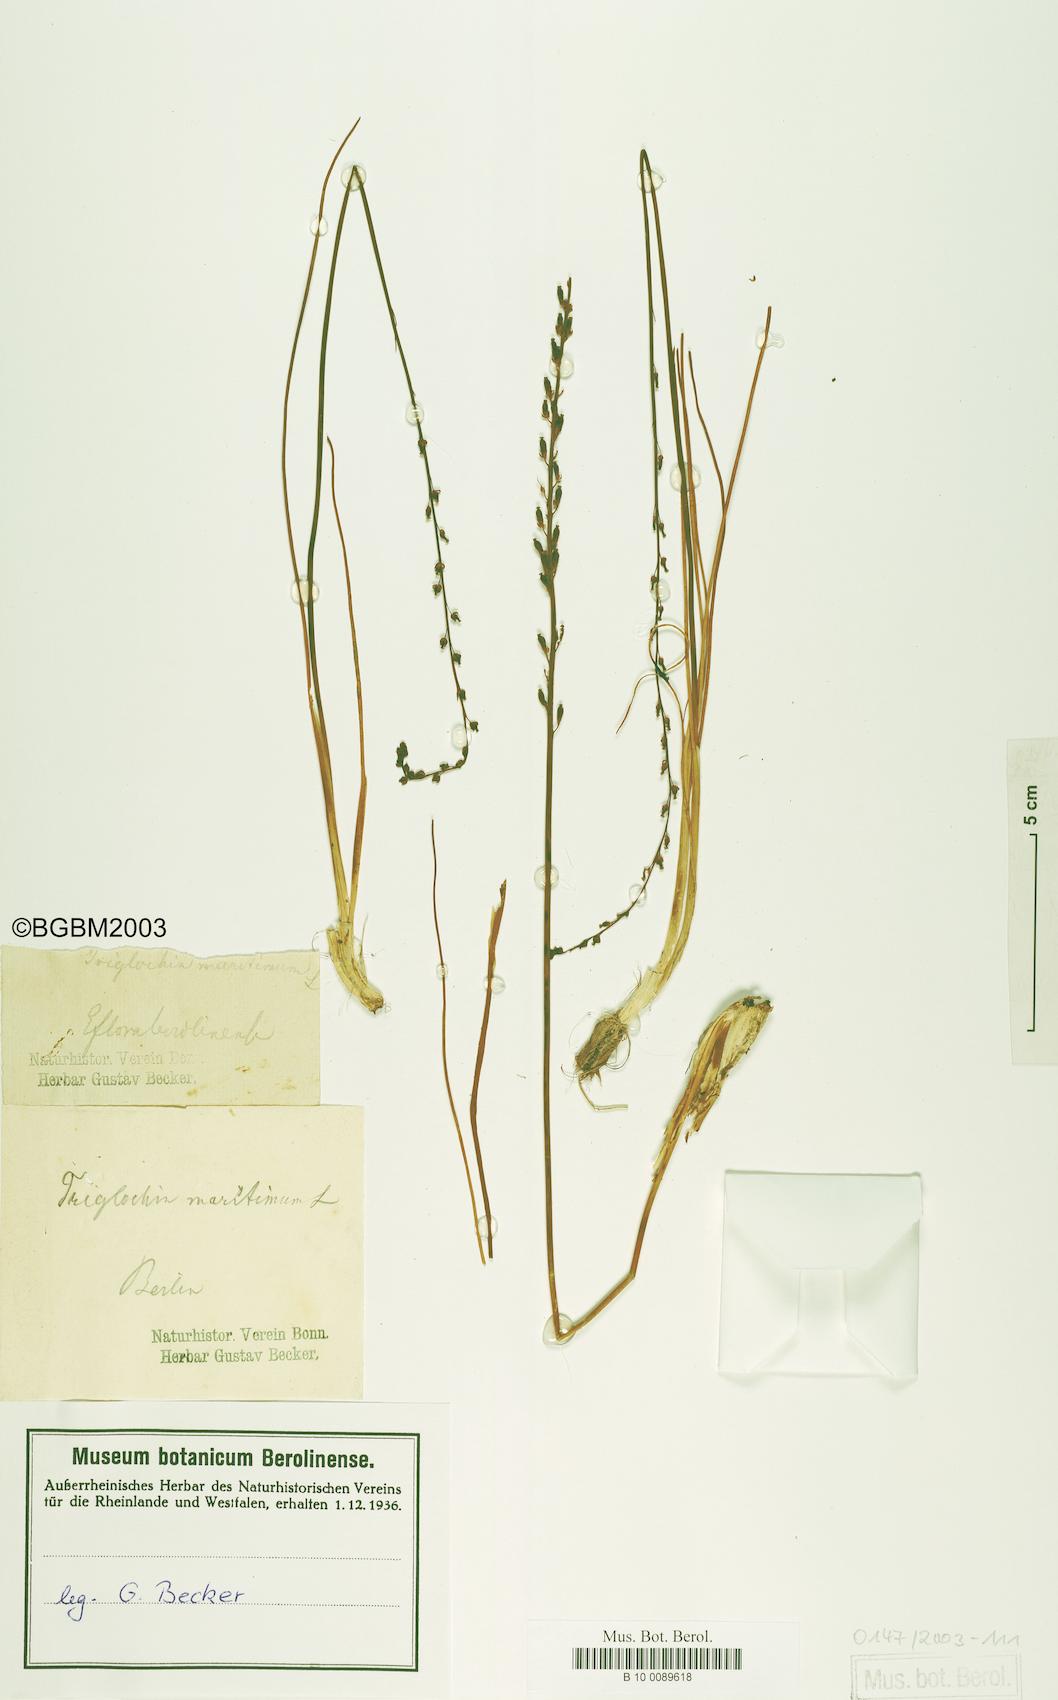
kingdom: Plantae
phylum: Tracheophyta
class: Liliopsida
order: Alismatales
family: Juncaginaceae
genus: Triglochin
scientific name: Triglochin maritima
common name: Sea arrowgrass
